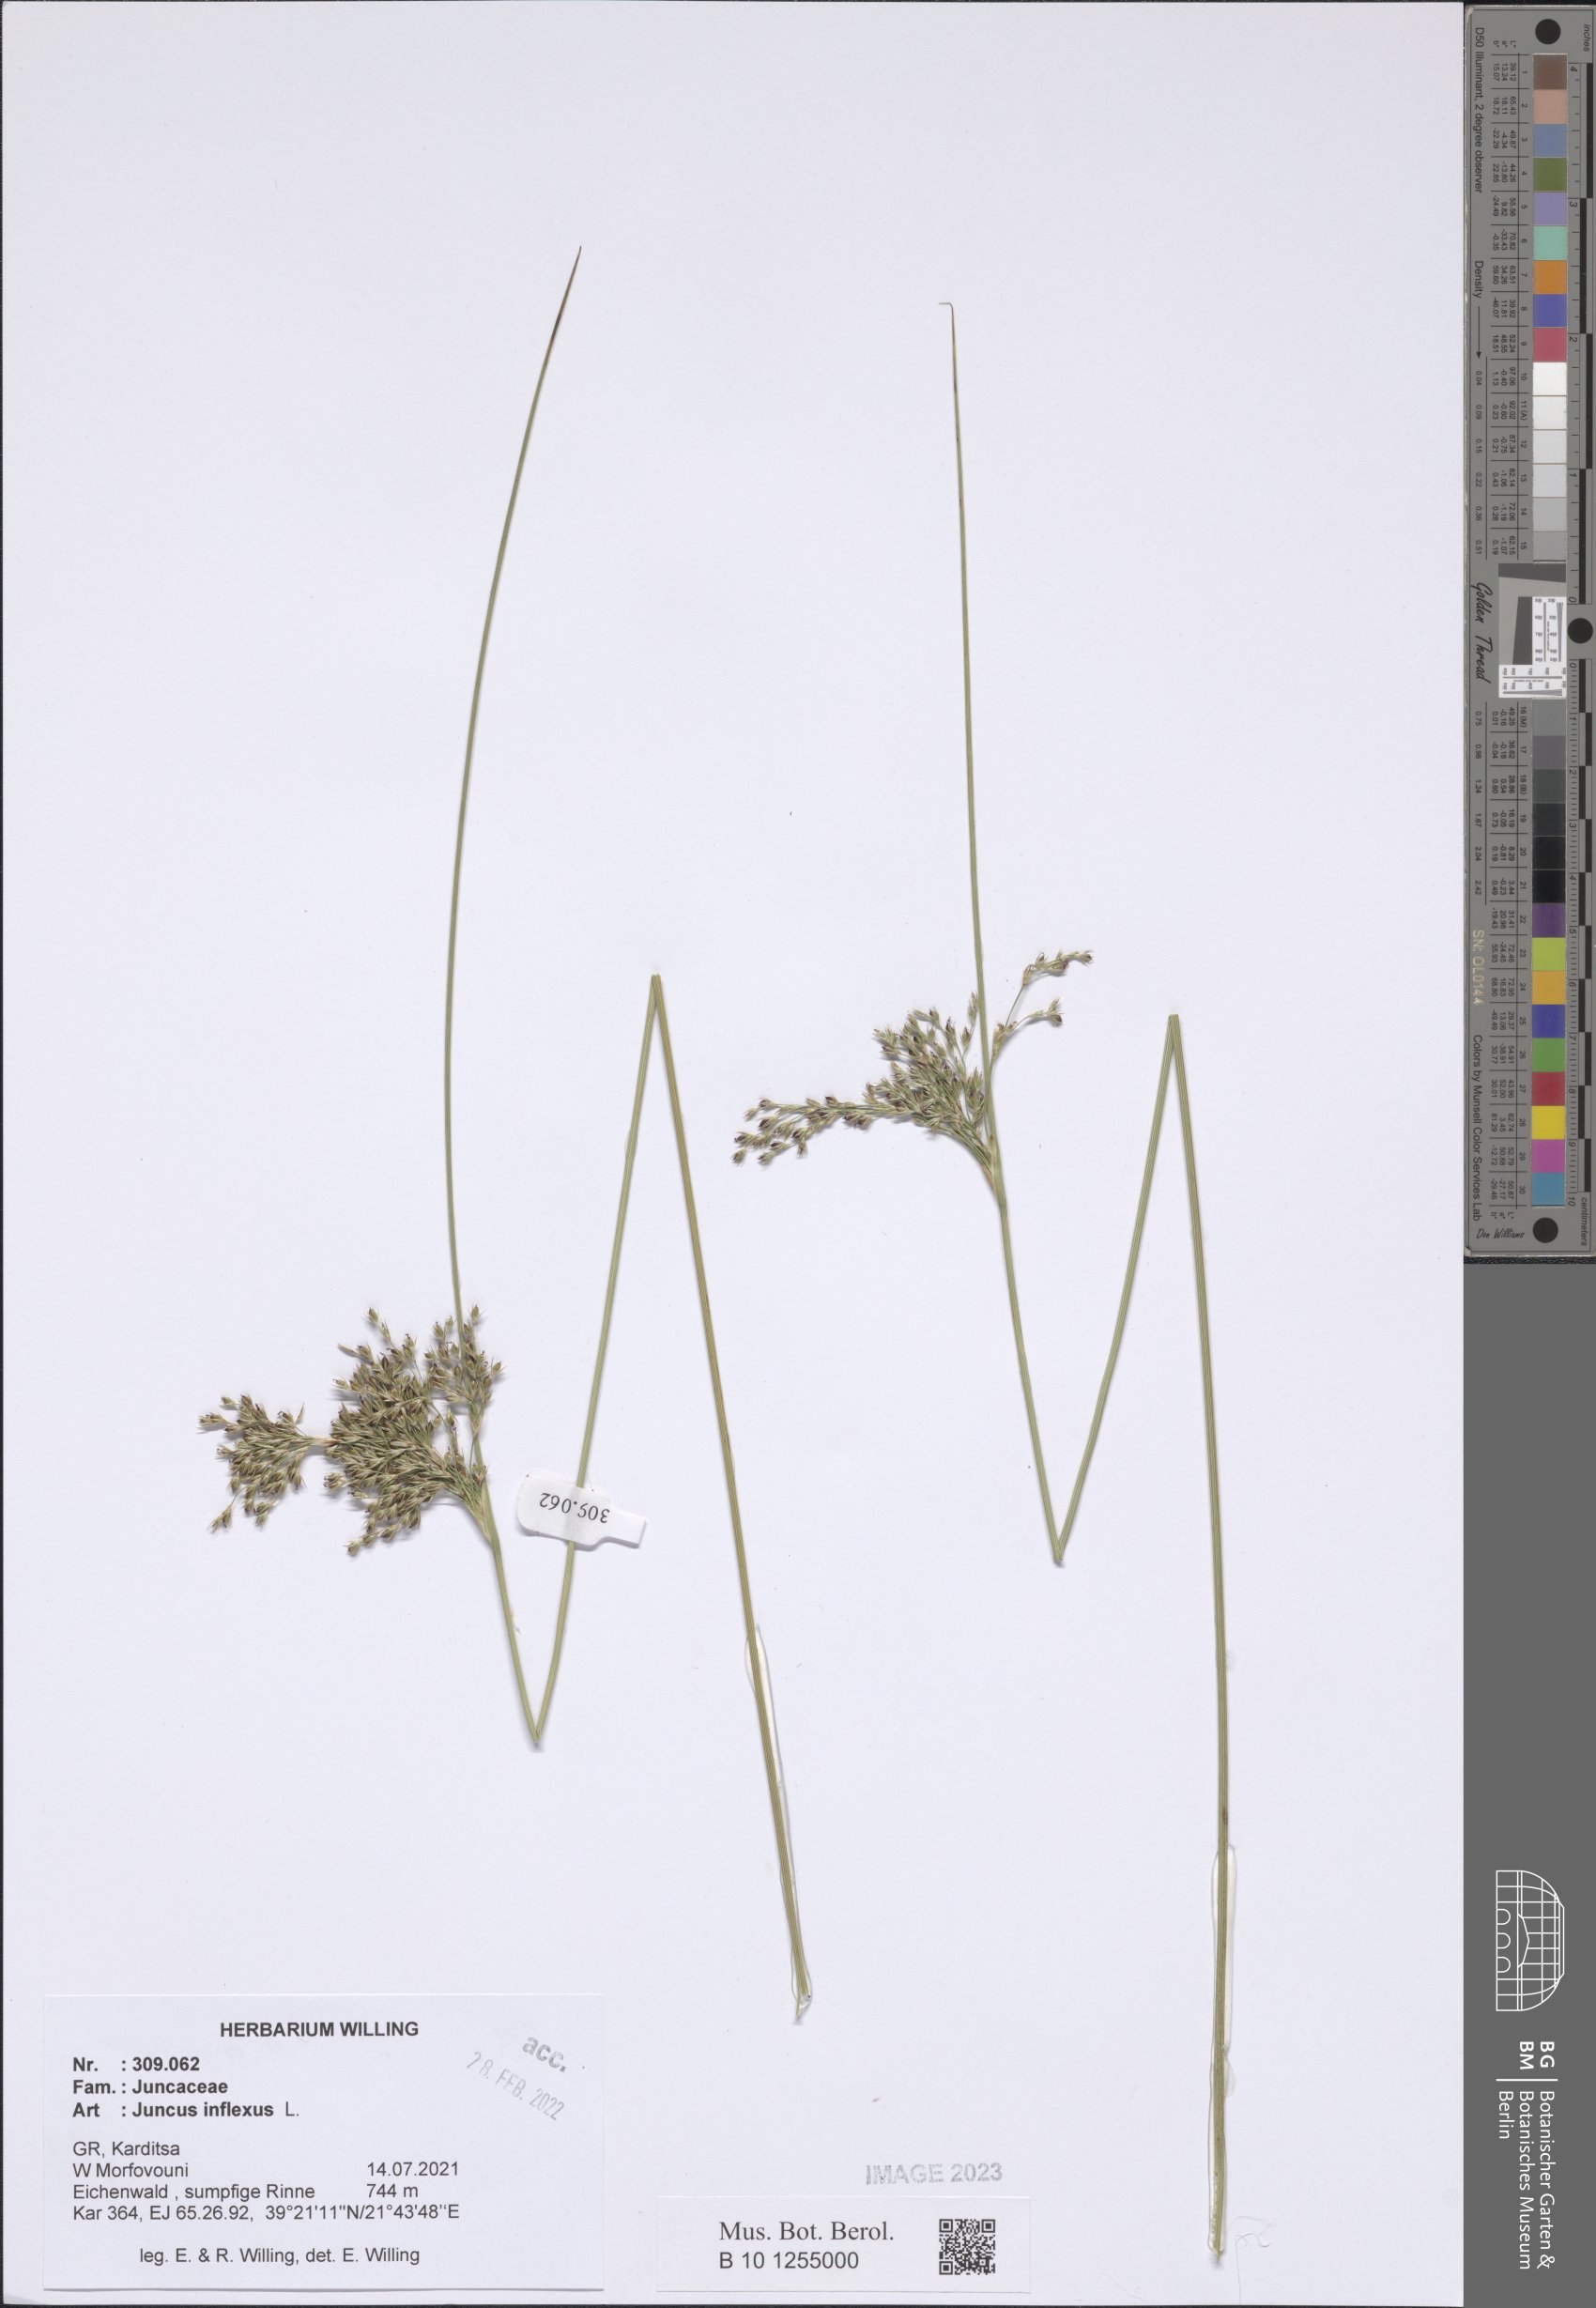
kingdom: Plantae
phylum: Tracheophyta
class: Liliopsida
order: Poales
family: Juncaceae
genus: Juncus
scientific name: Juncus inflexus
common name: Hard rush
